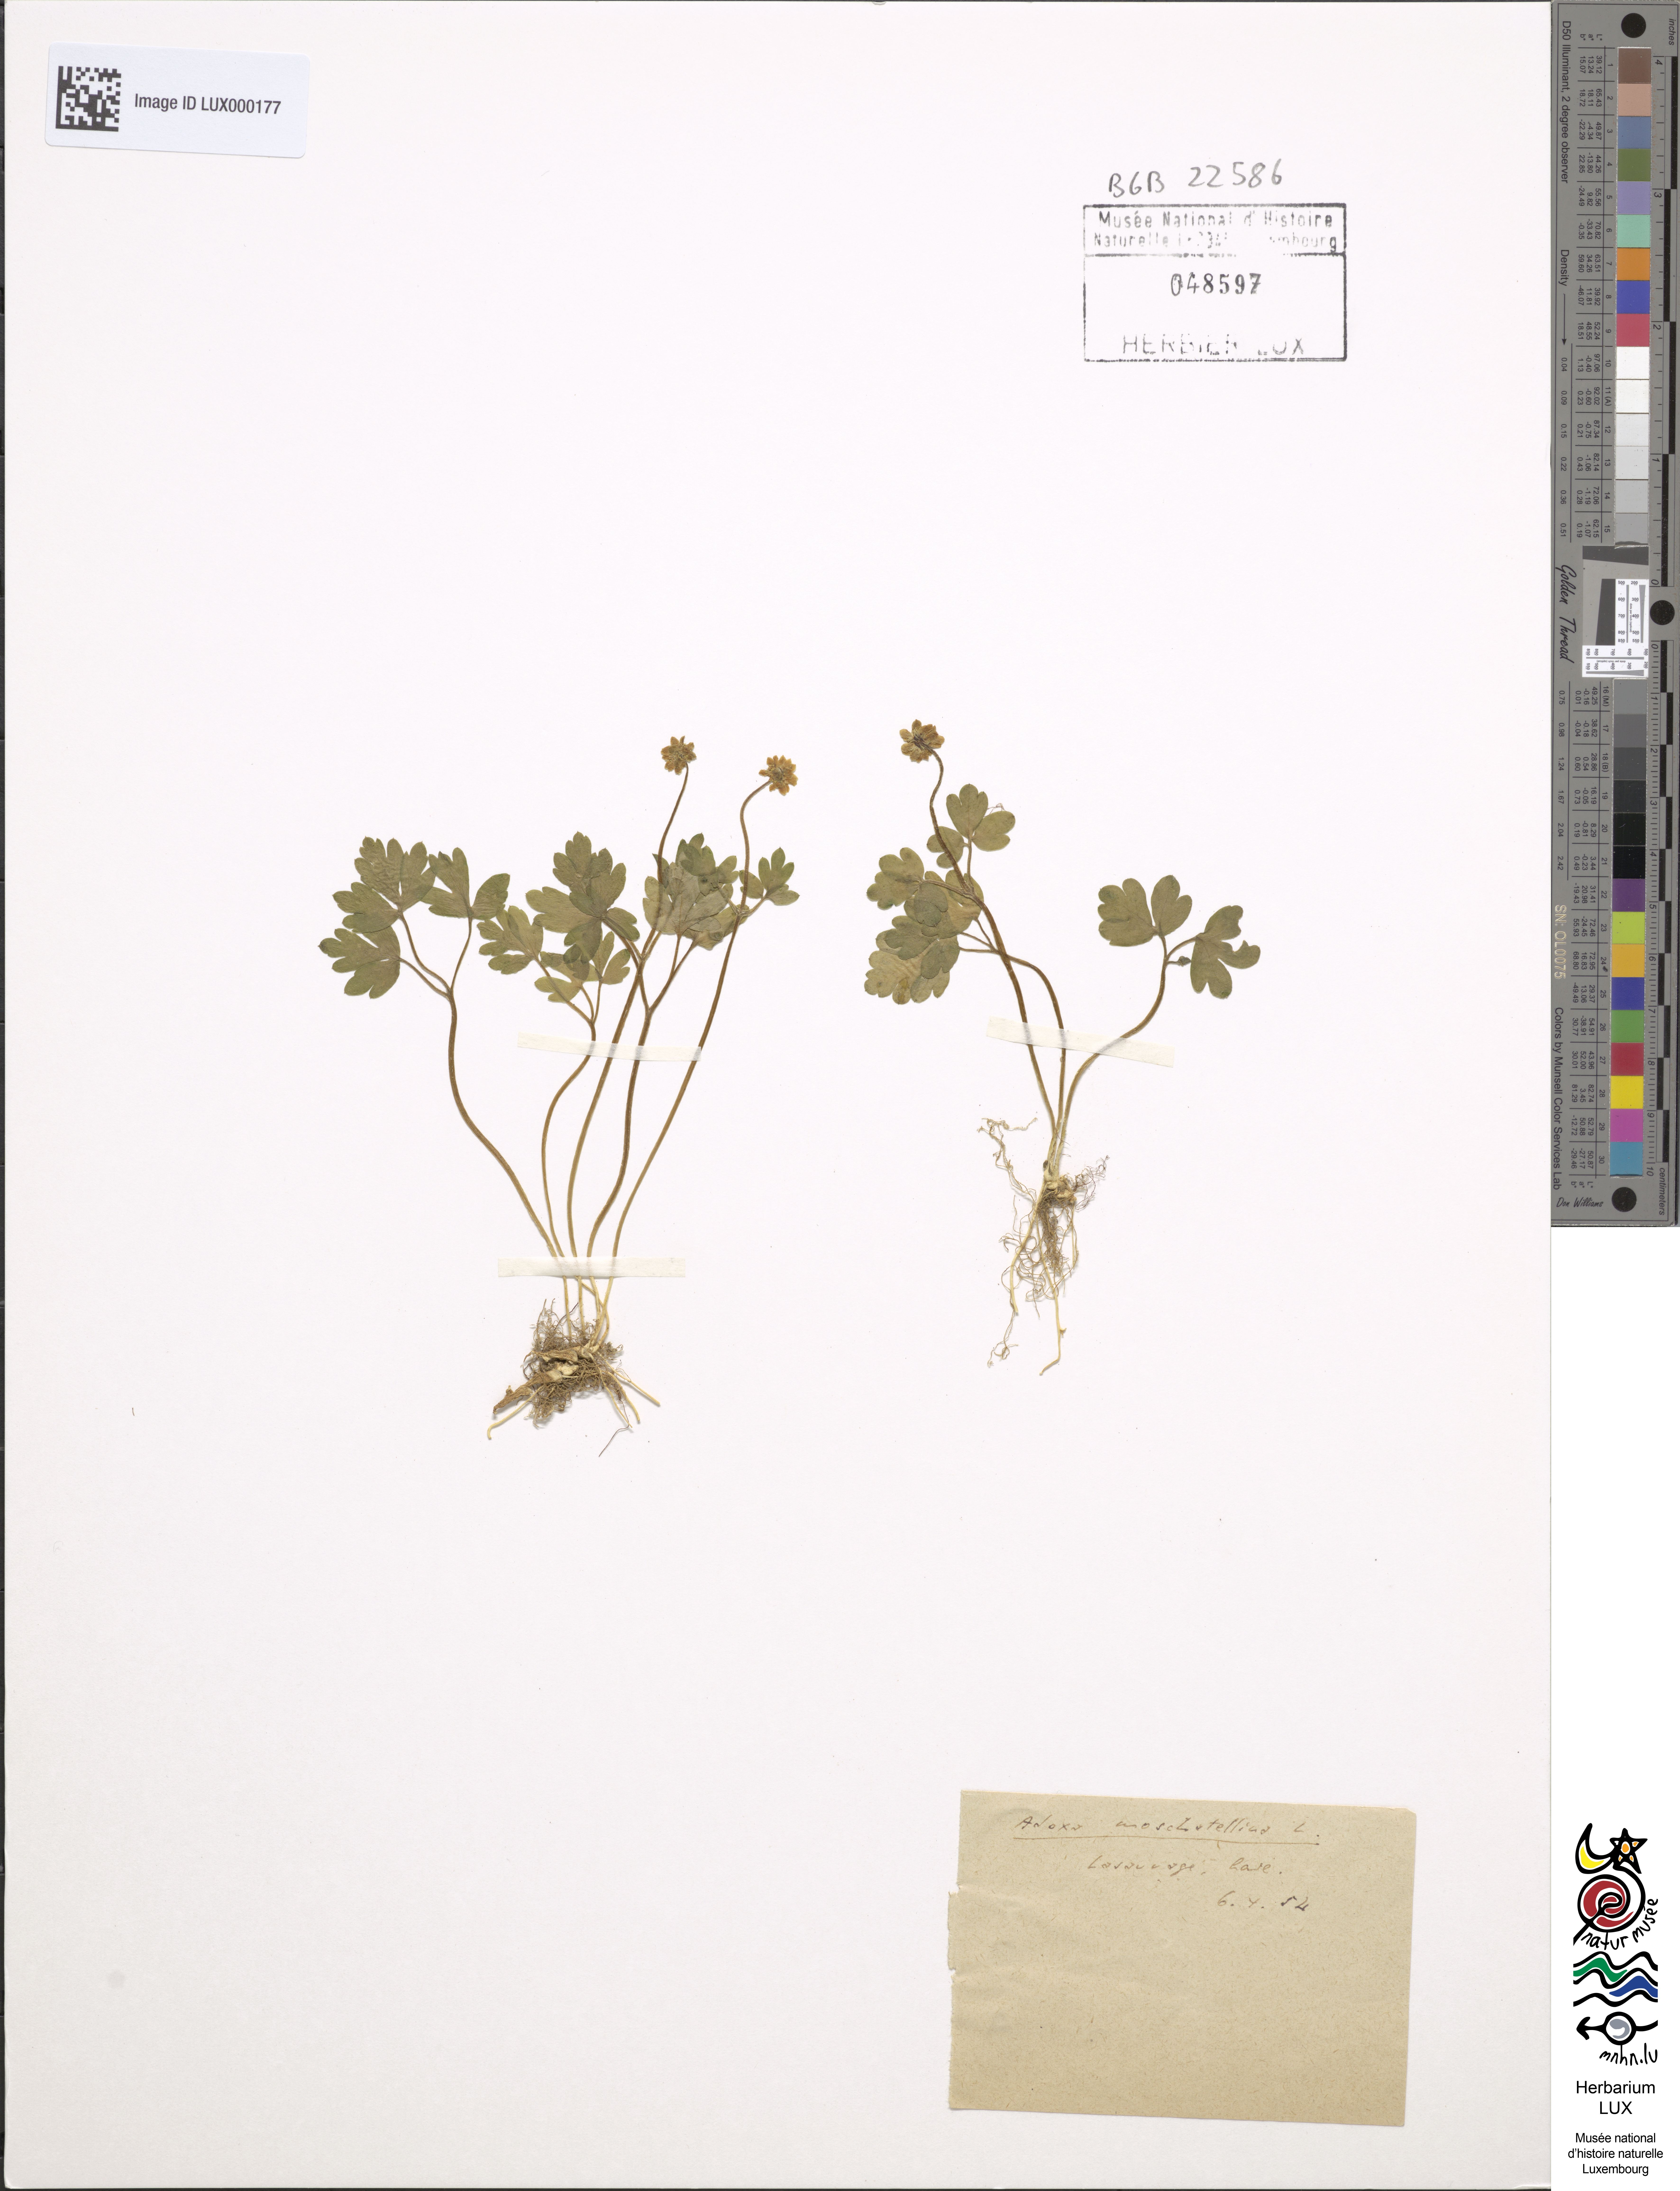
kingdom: Plantae
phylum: Tracheophyta
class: Magnoliopsida
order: Dipsacales
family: Viburnaceae
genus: Adoxa
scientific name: Adoxa moschatellina
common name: Moschatel
